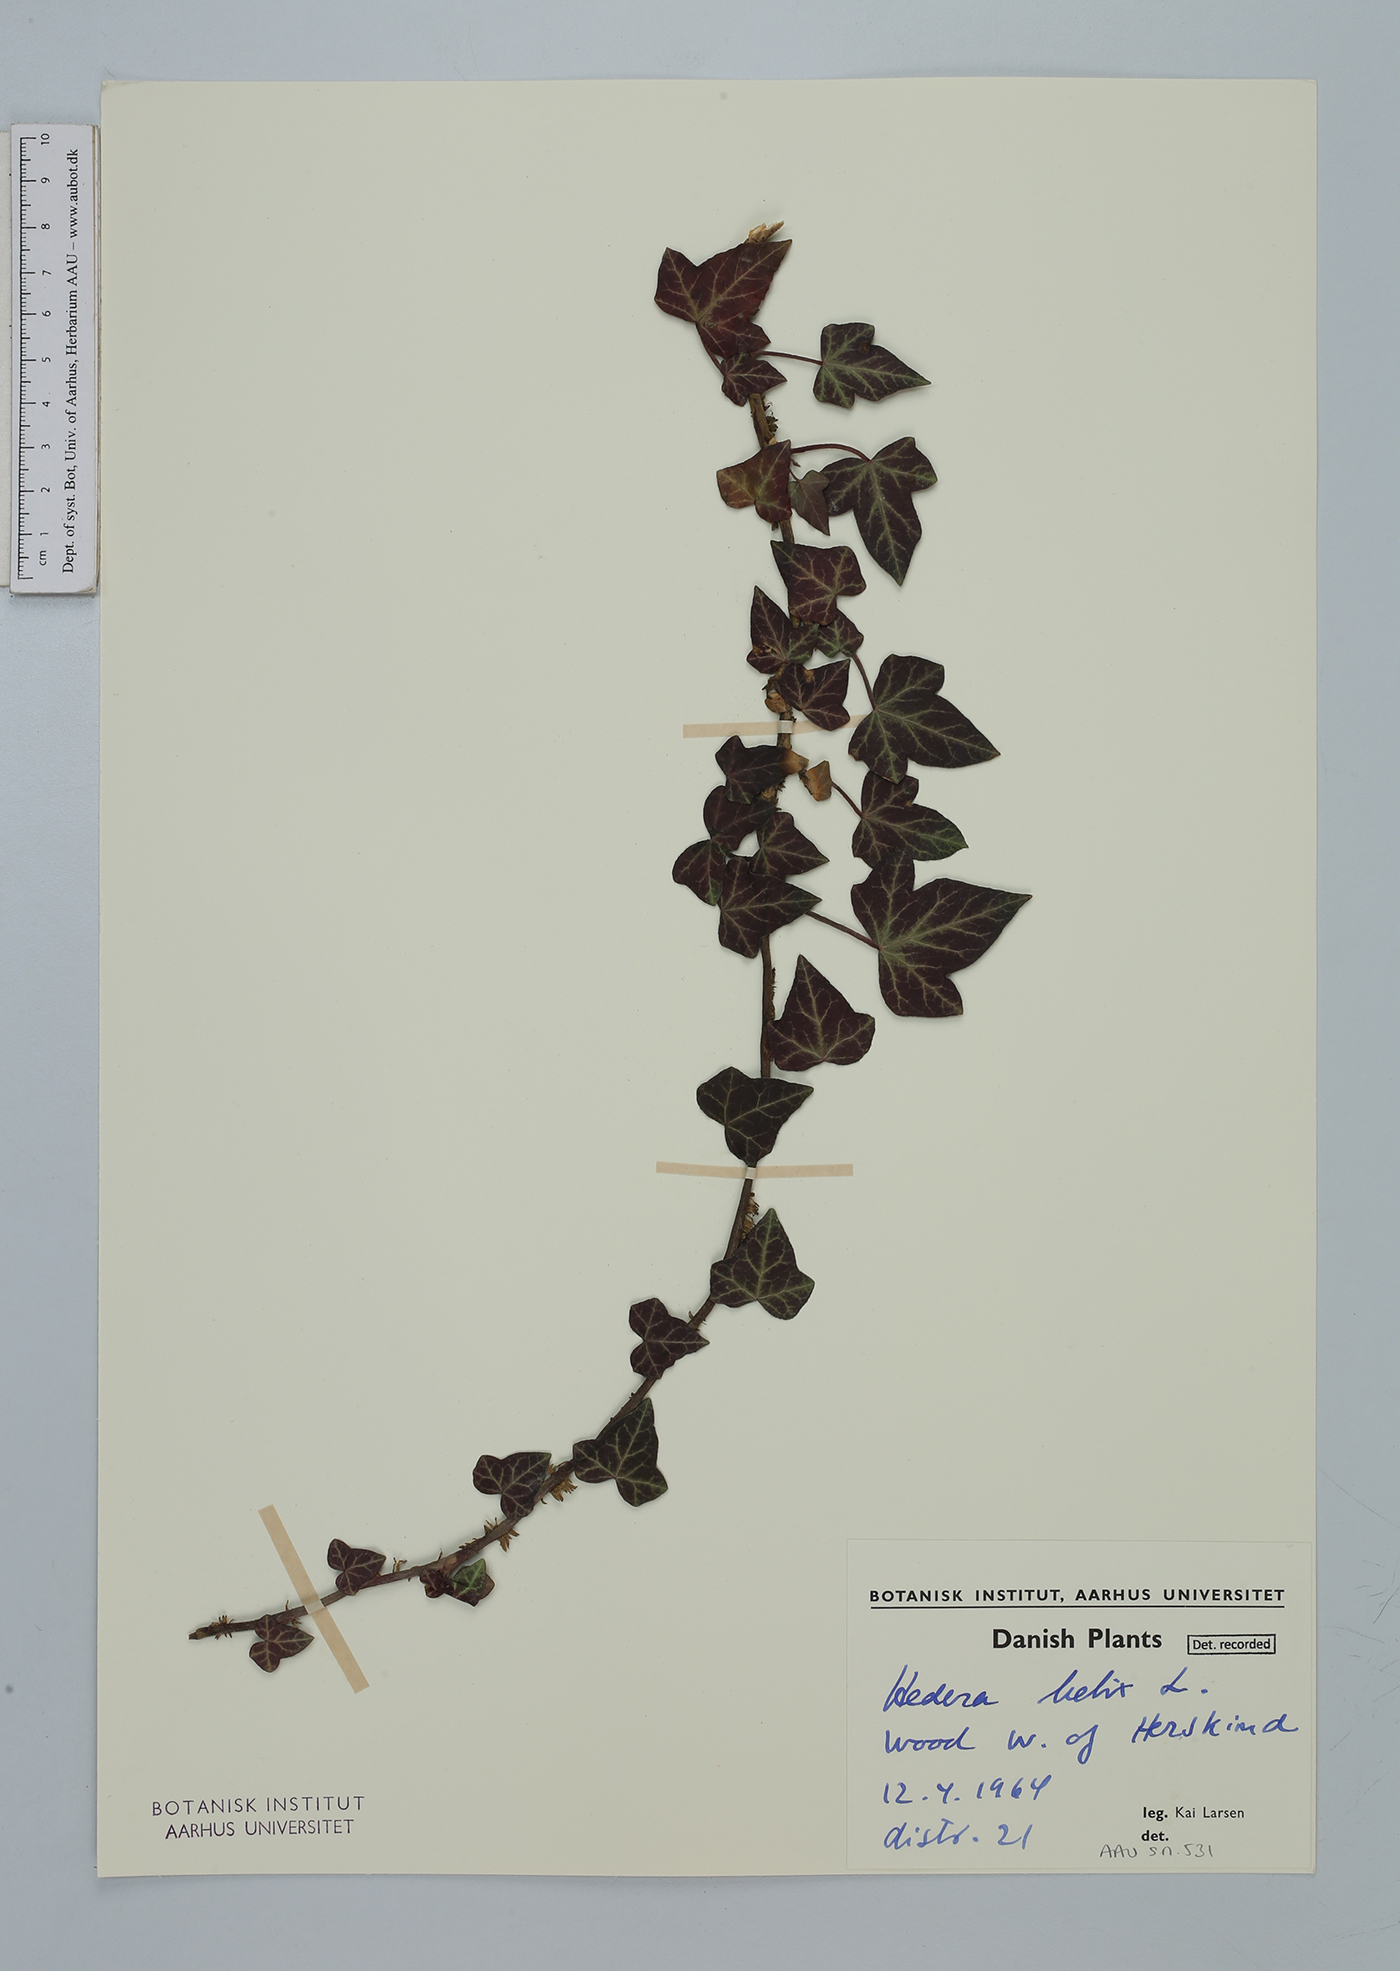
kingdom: Plantae
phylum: Tracheophyta
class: Magnoliopsida
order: Apiales
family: Araliaceae
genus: Hedera
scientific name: Hedera helix
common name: Ivy
